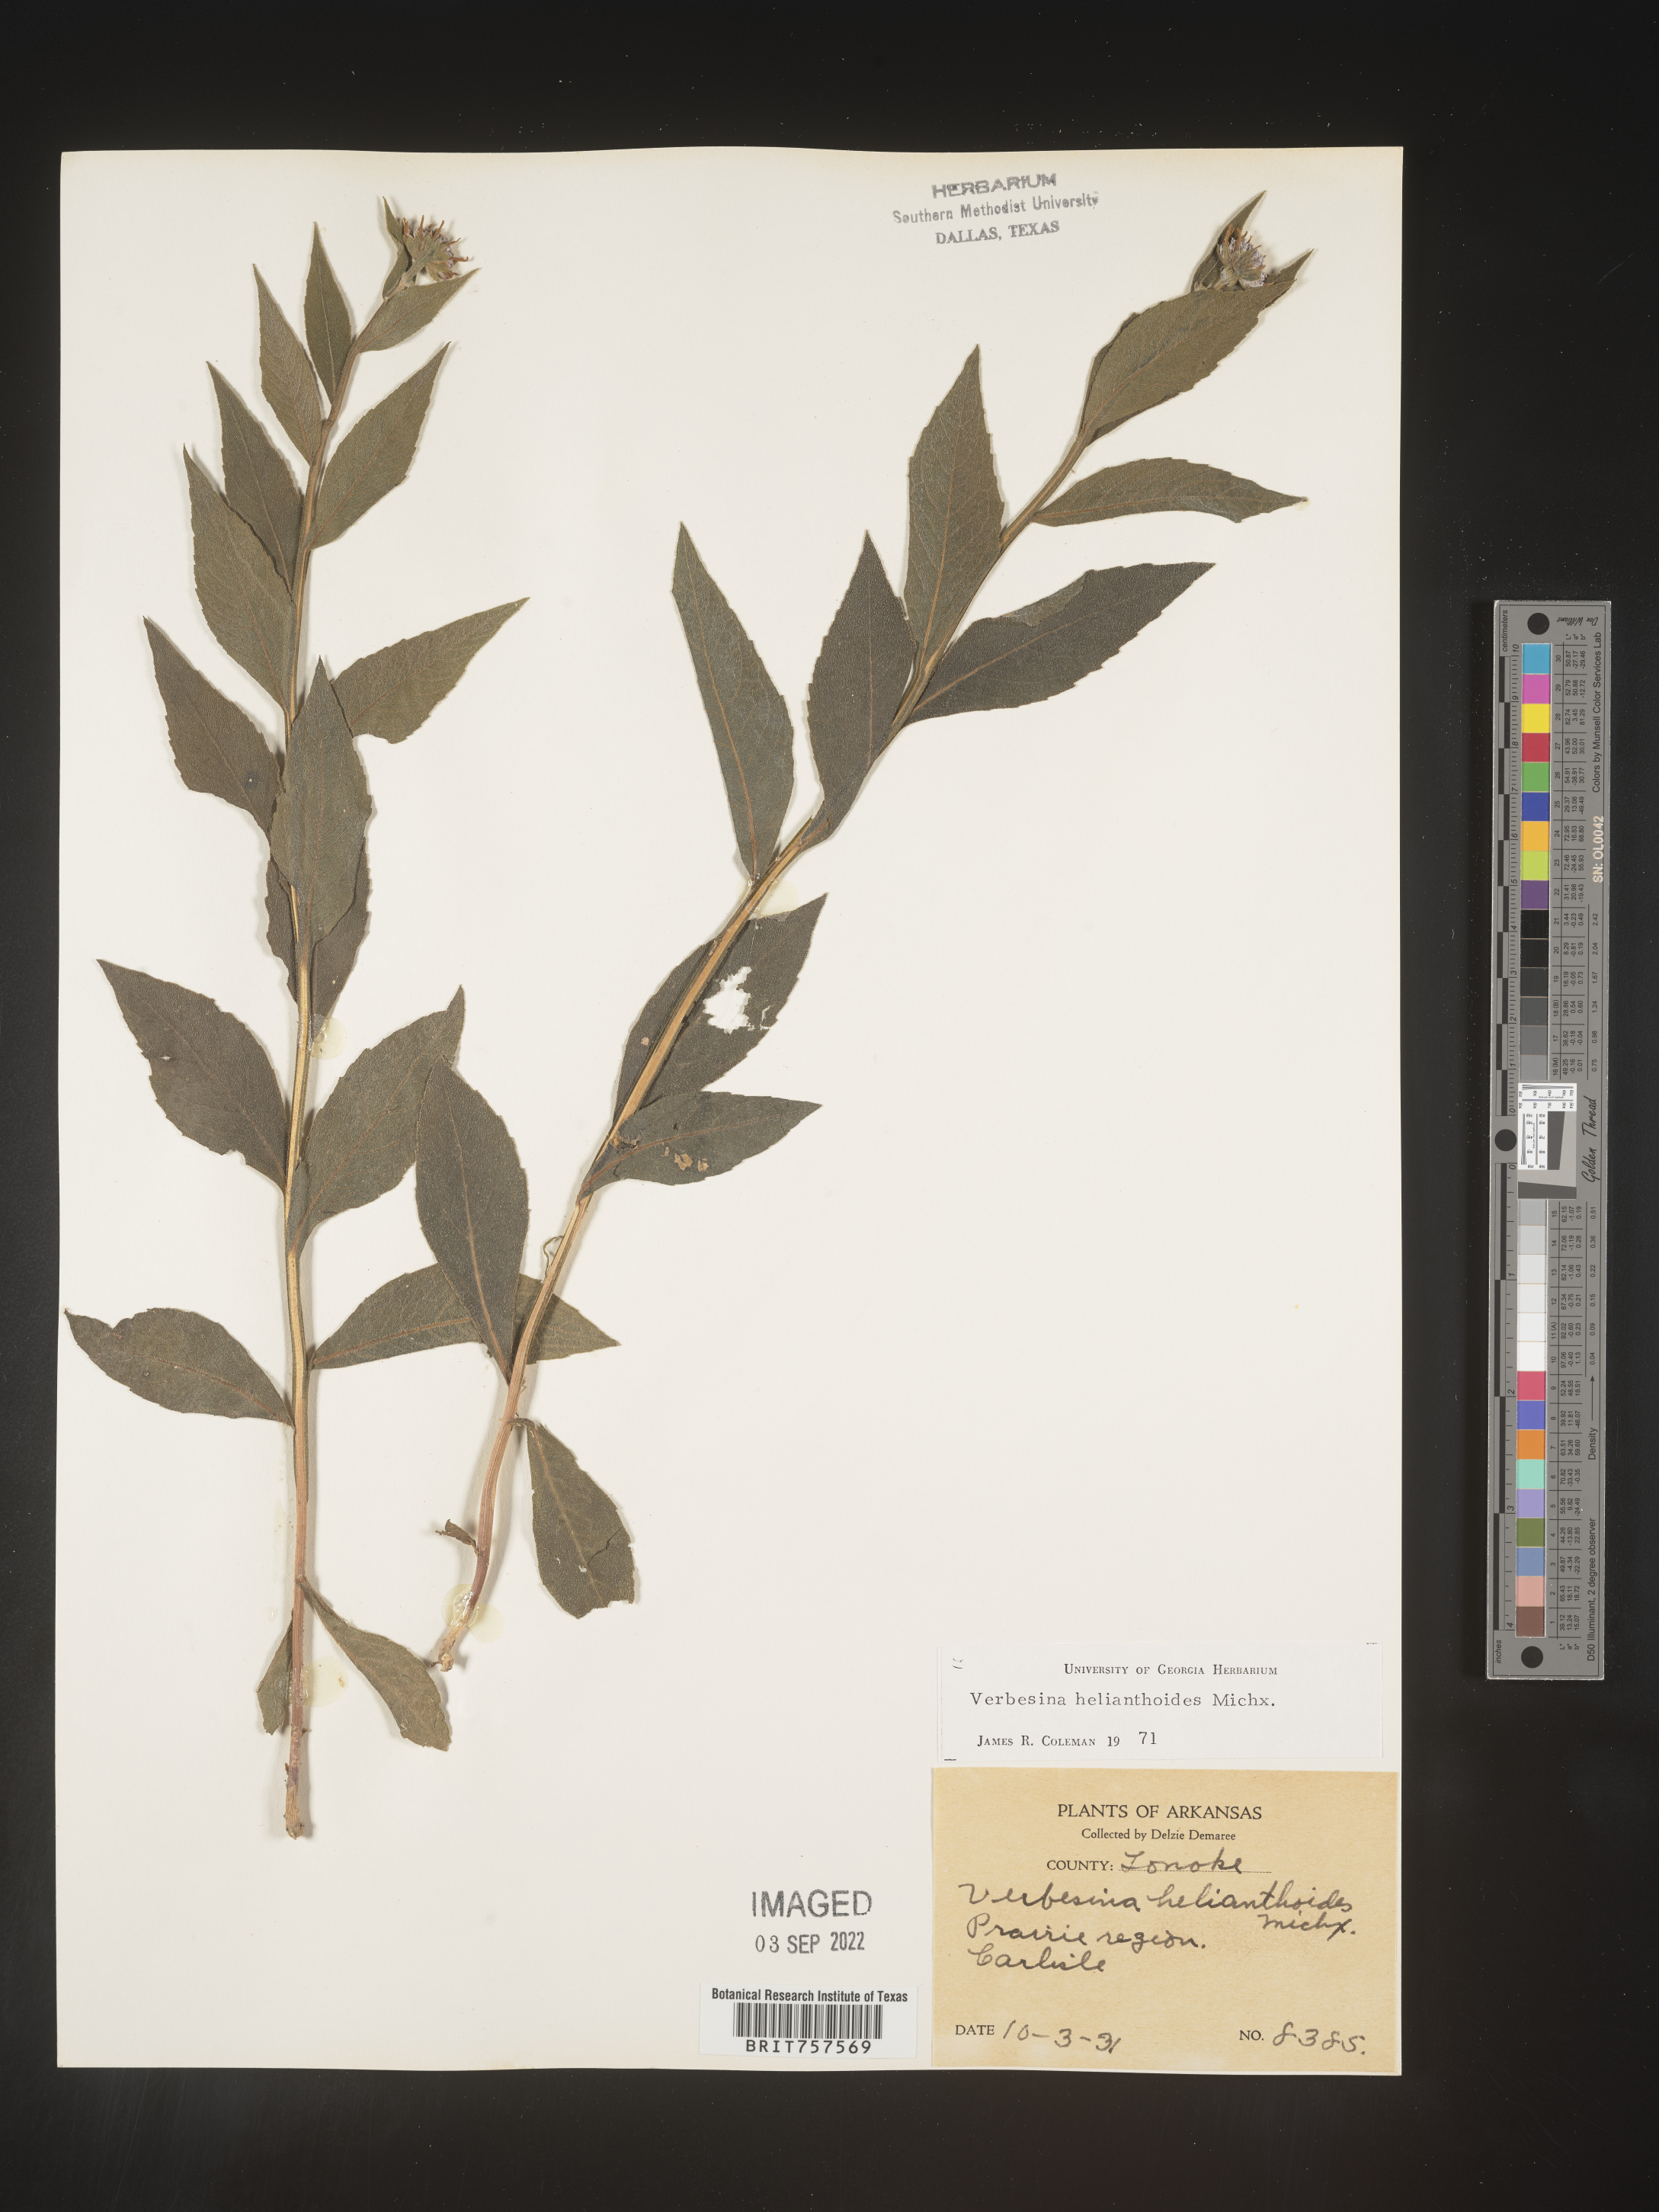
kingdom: Plantae
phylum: Tracheophyta
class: Magnoliopsida
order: Asterales
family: Asteraceae
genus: Verbesina
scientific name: Verbesina helianthoides
